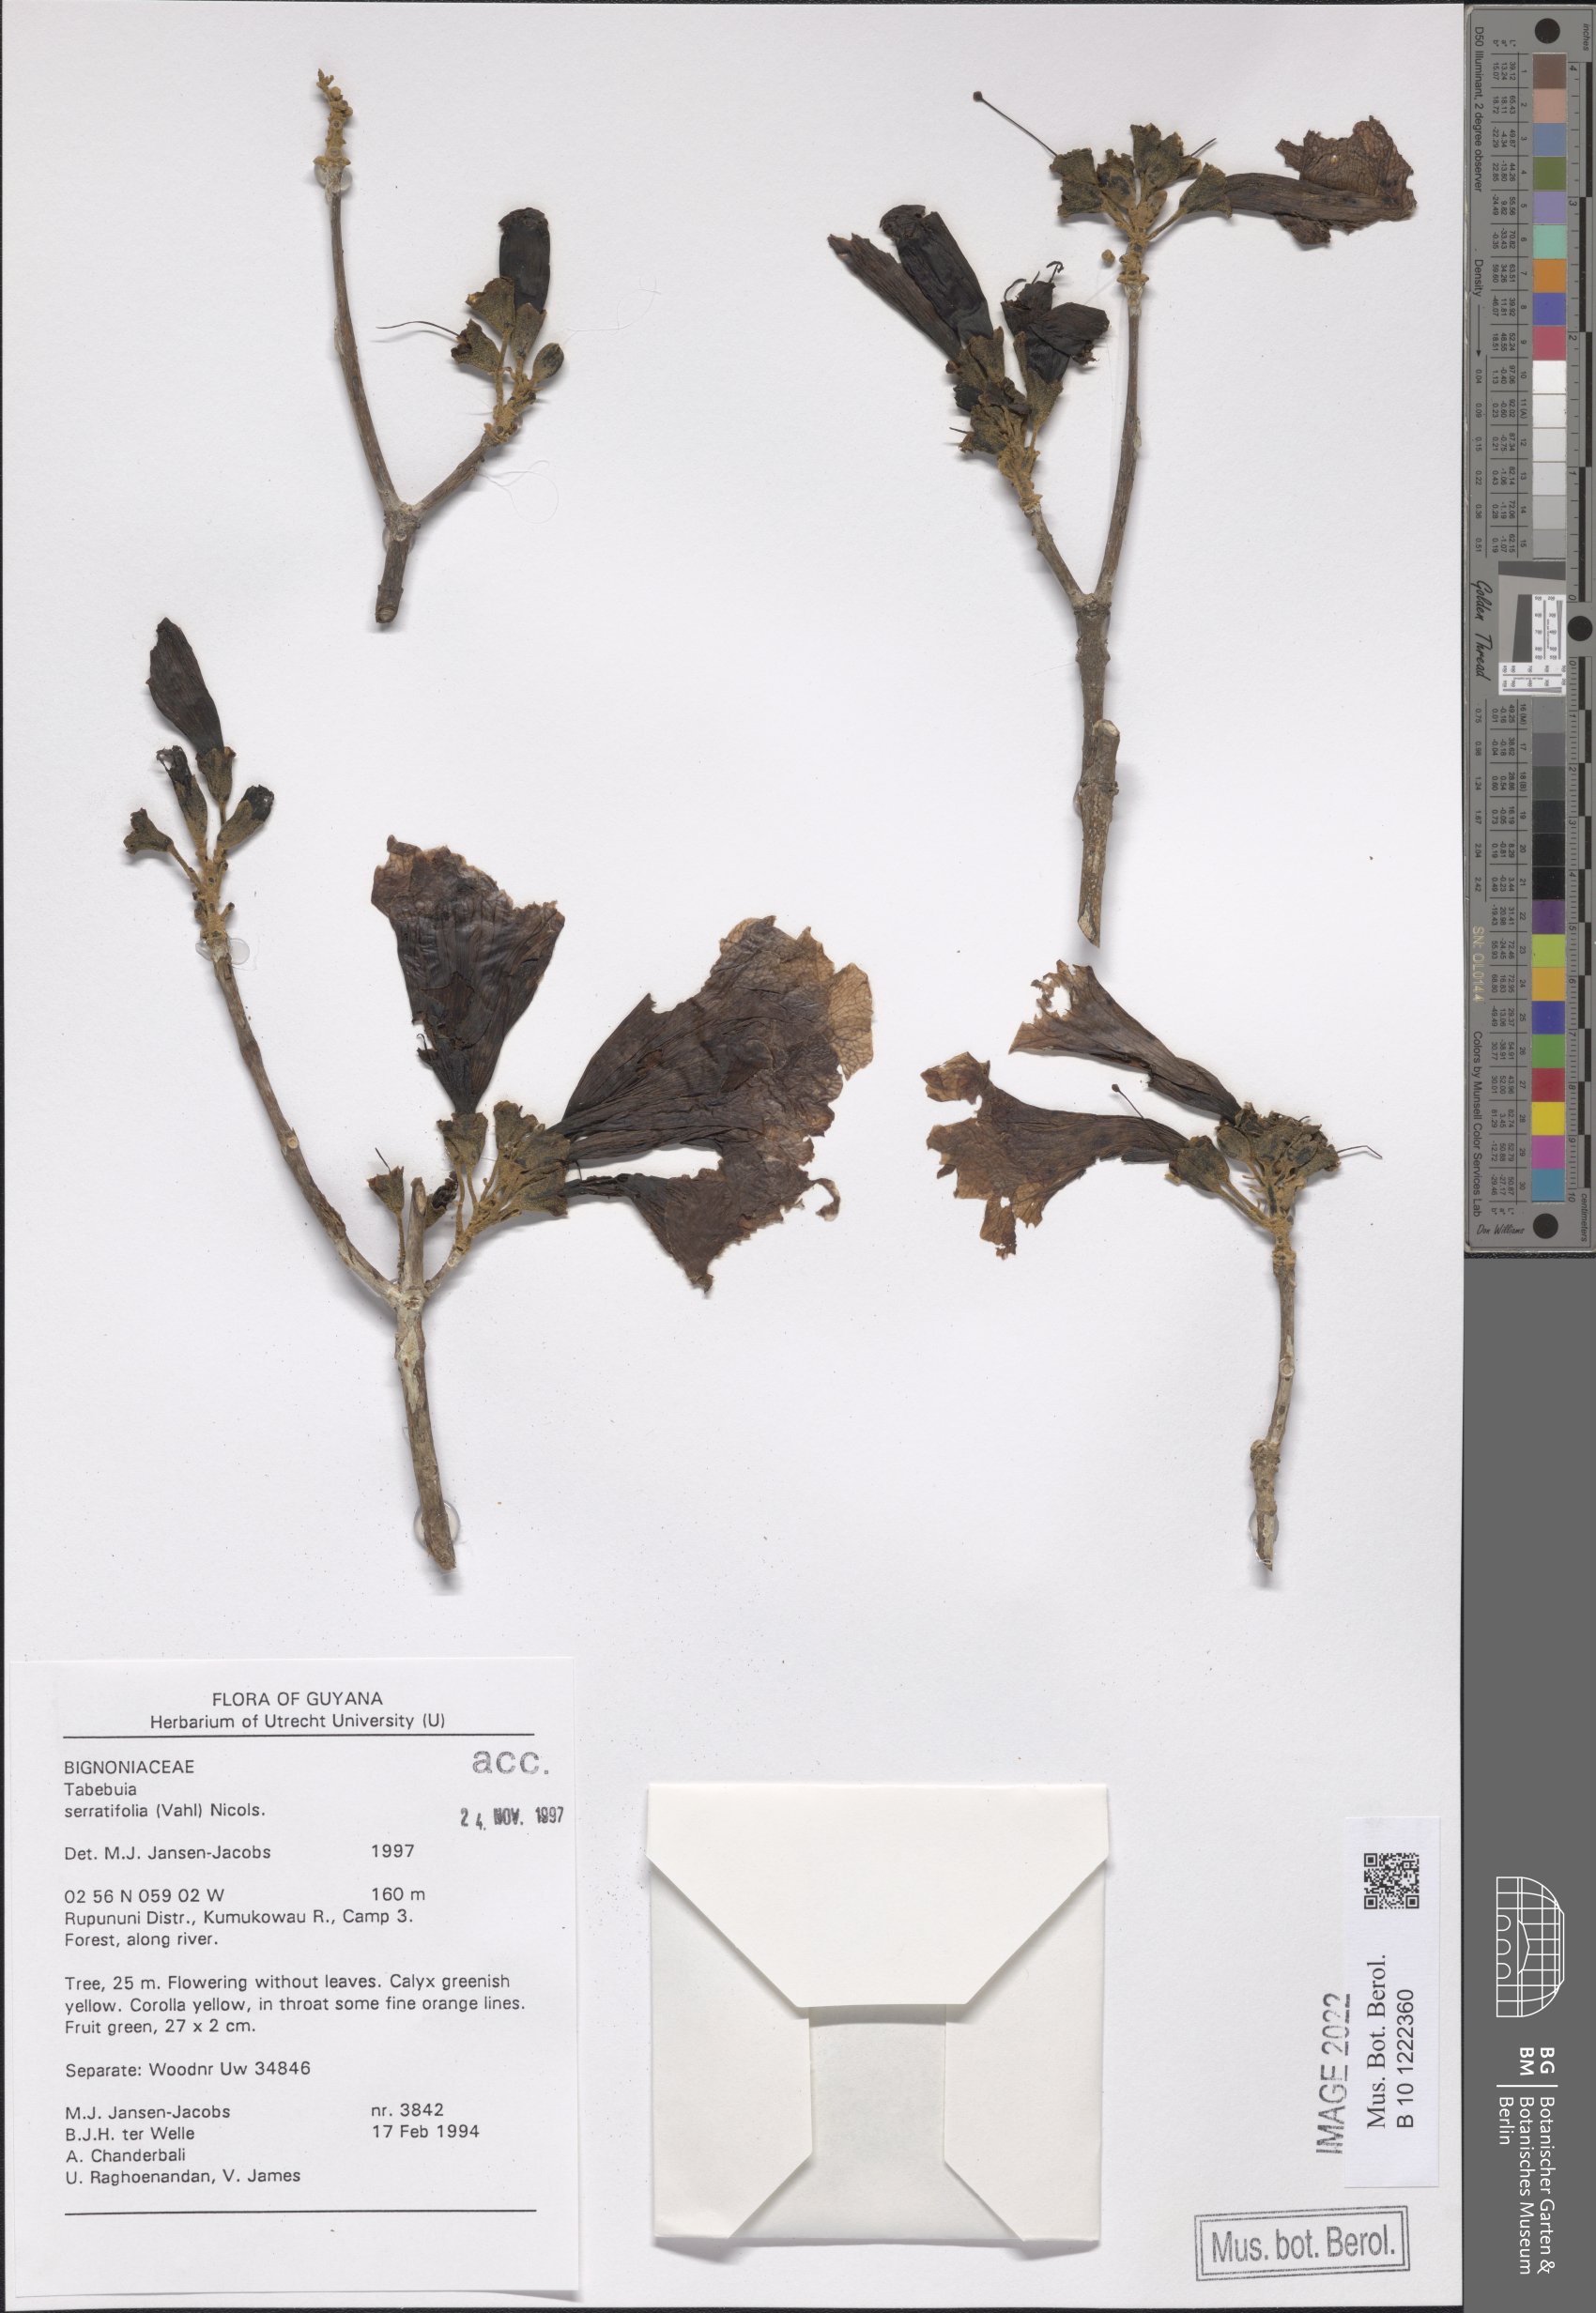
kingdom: Plantae
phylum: Tracheophyta
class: Magnoliopsida
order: Lamiales
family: Bignoniaceae
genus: Handroanthus
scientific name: Handroanthus serratifolius
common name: Yellow ipe
